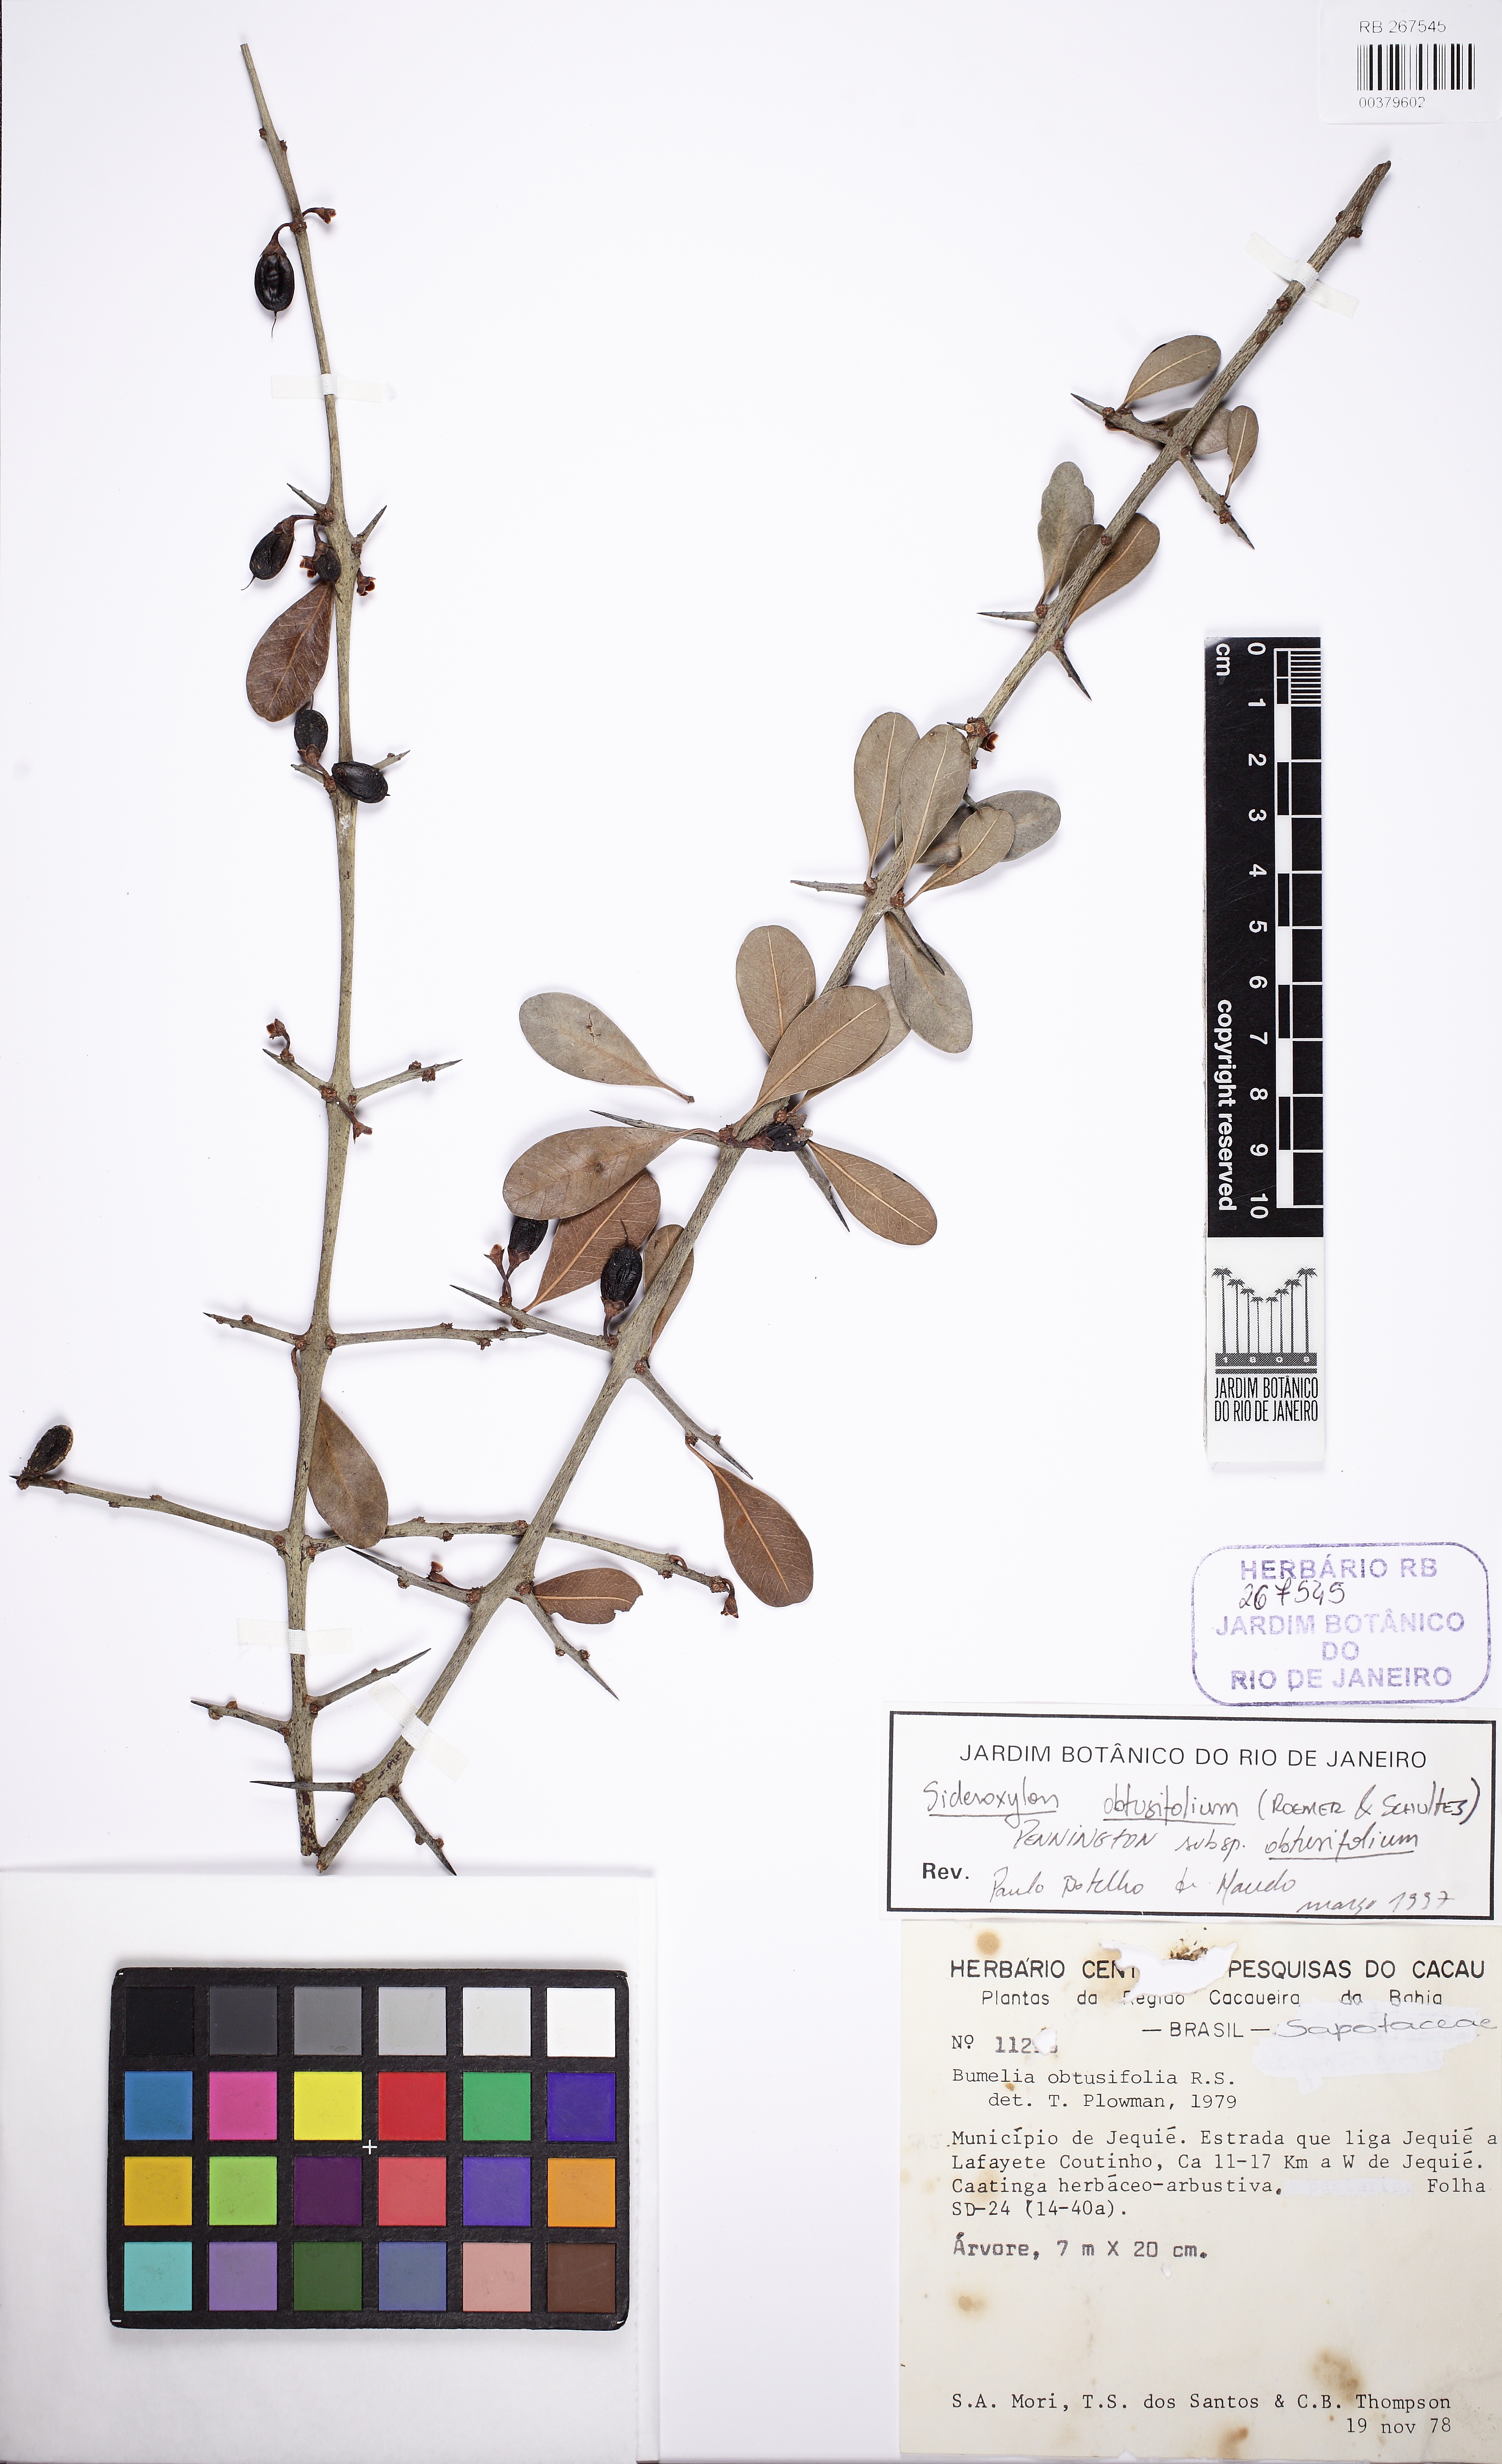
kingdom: Plantae
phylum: Tracheophyta
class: Magnoliopsida
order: Ericales
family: Sapotaceae
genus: Sideroxylon
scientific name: Sideroxylon obtusifolium
